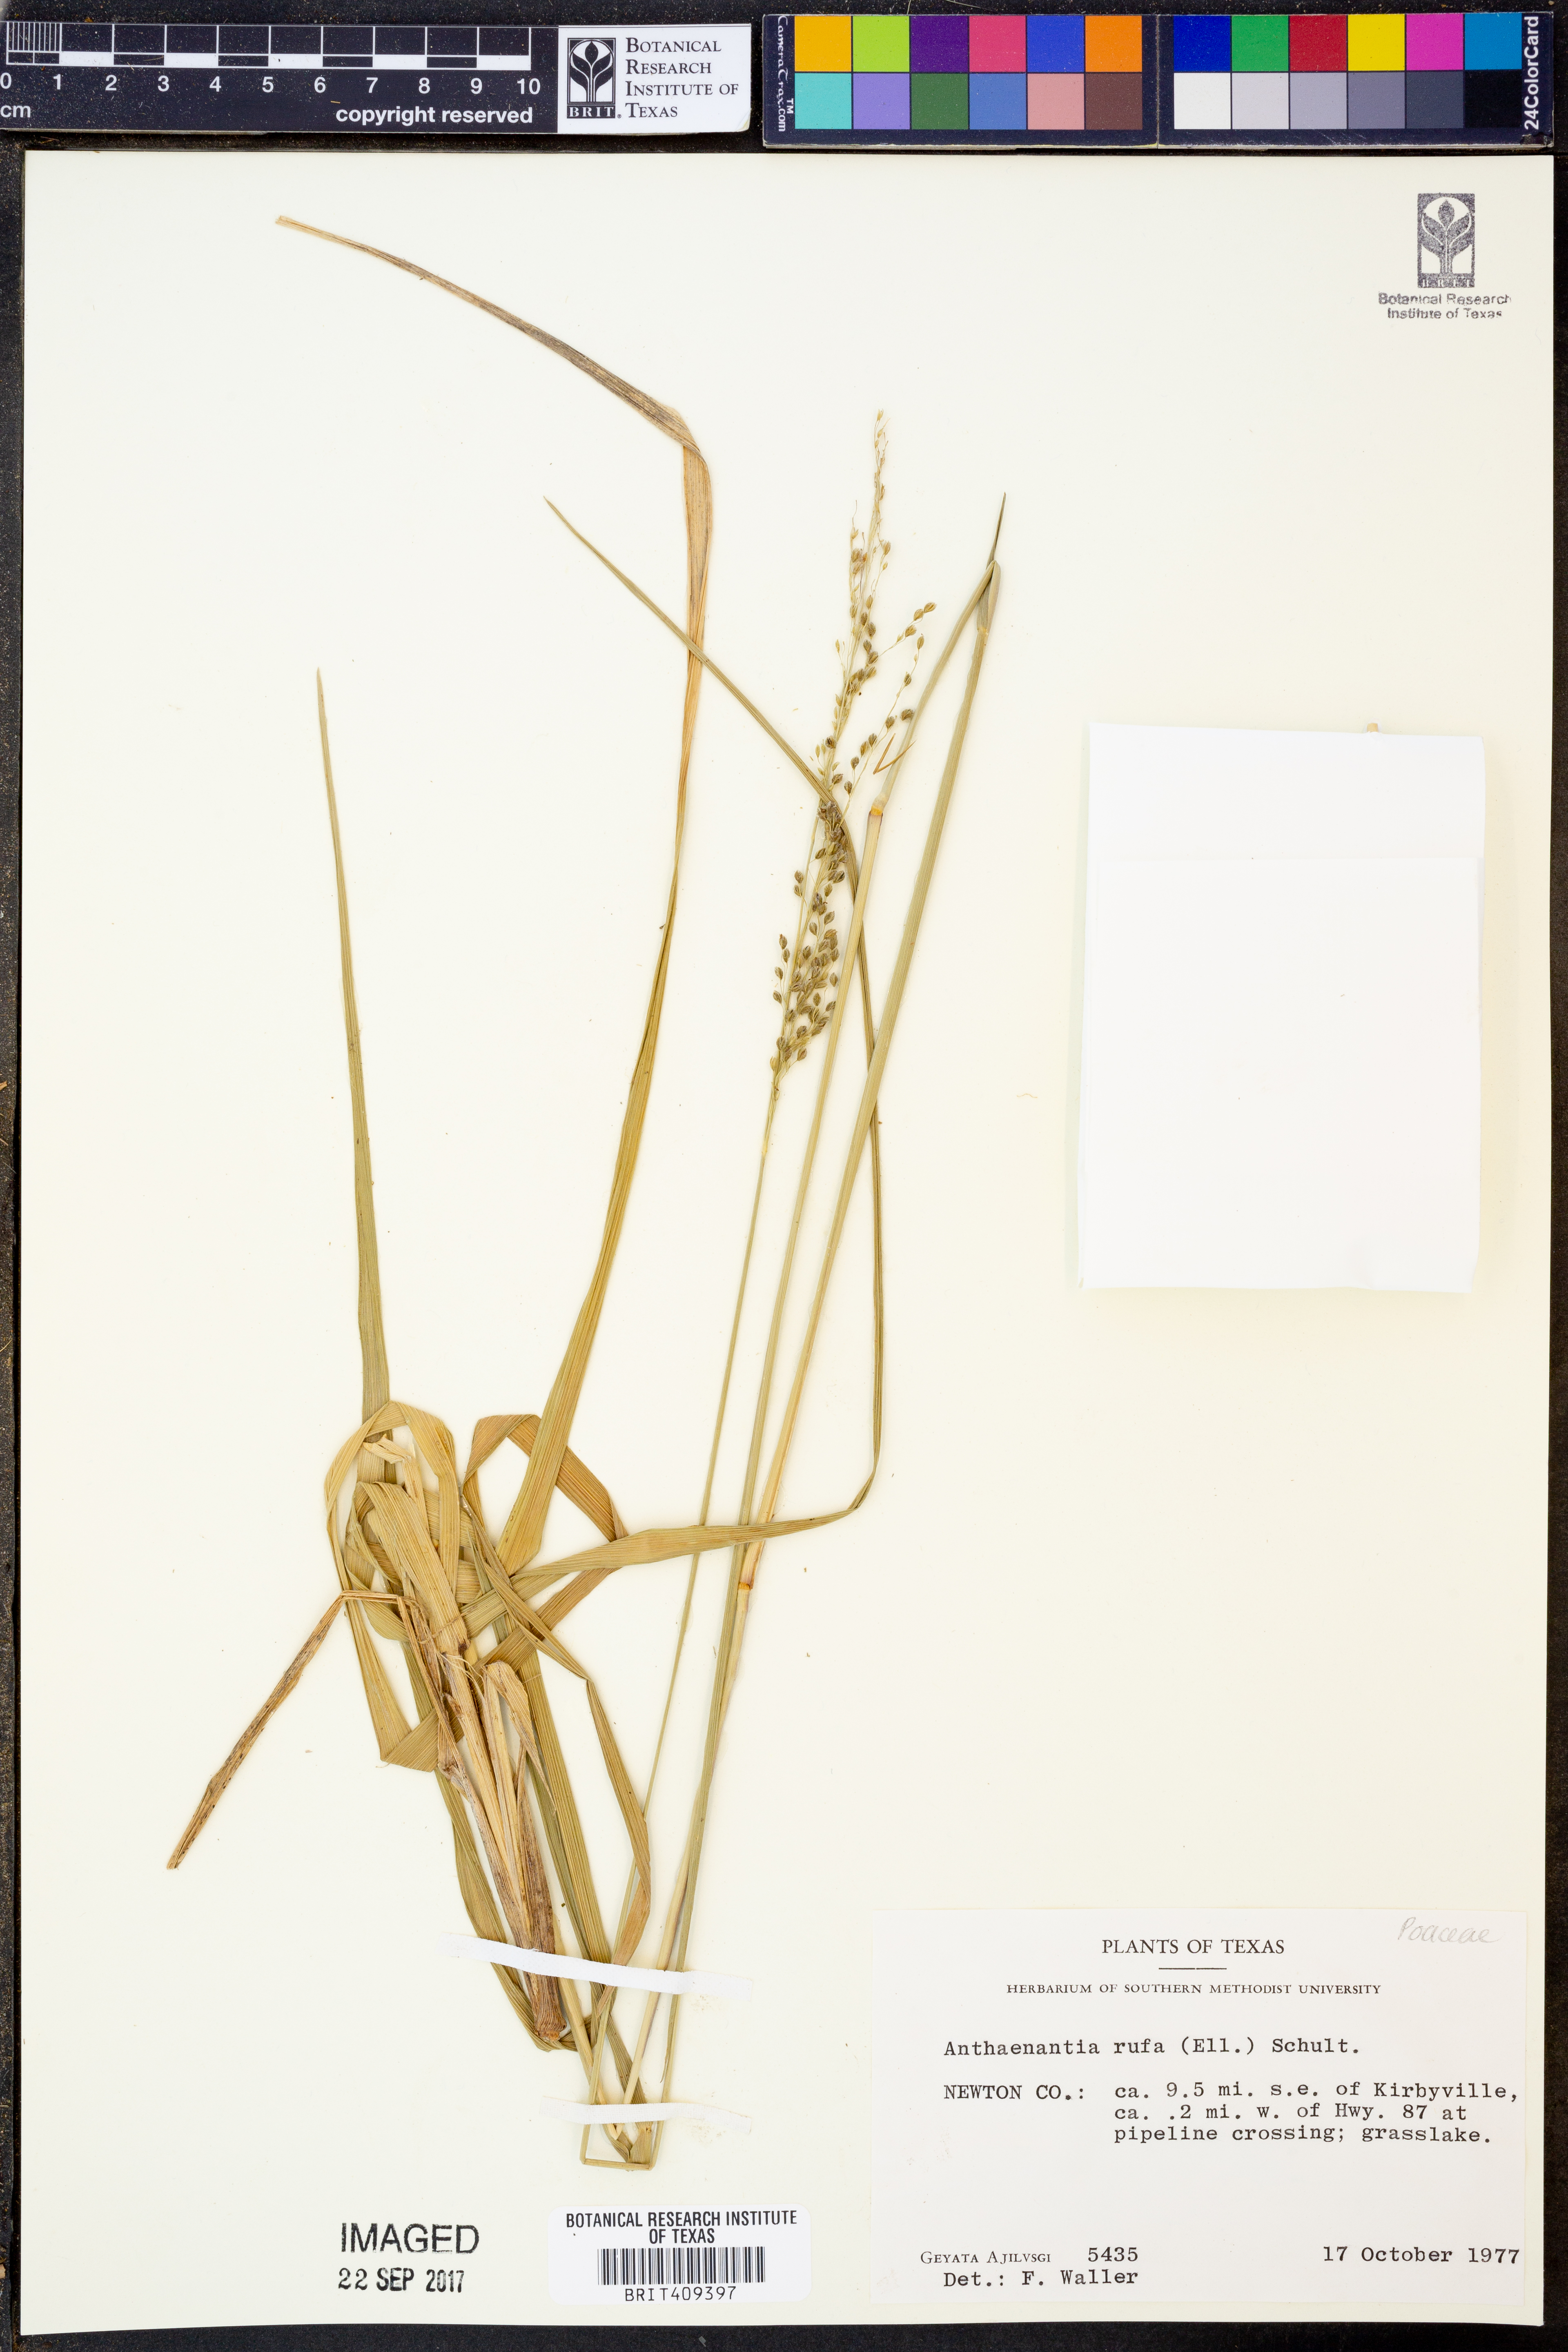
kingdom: Plantae
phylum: Tracheophyta
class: Liliopsida
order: Poales
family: Poaceae
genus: Anthenantia
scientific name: Anthenantia rufa
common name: Purple silkyscale
